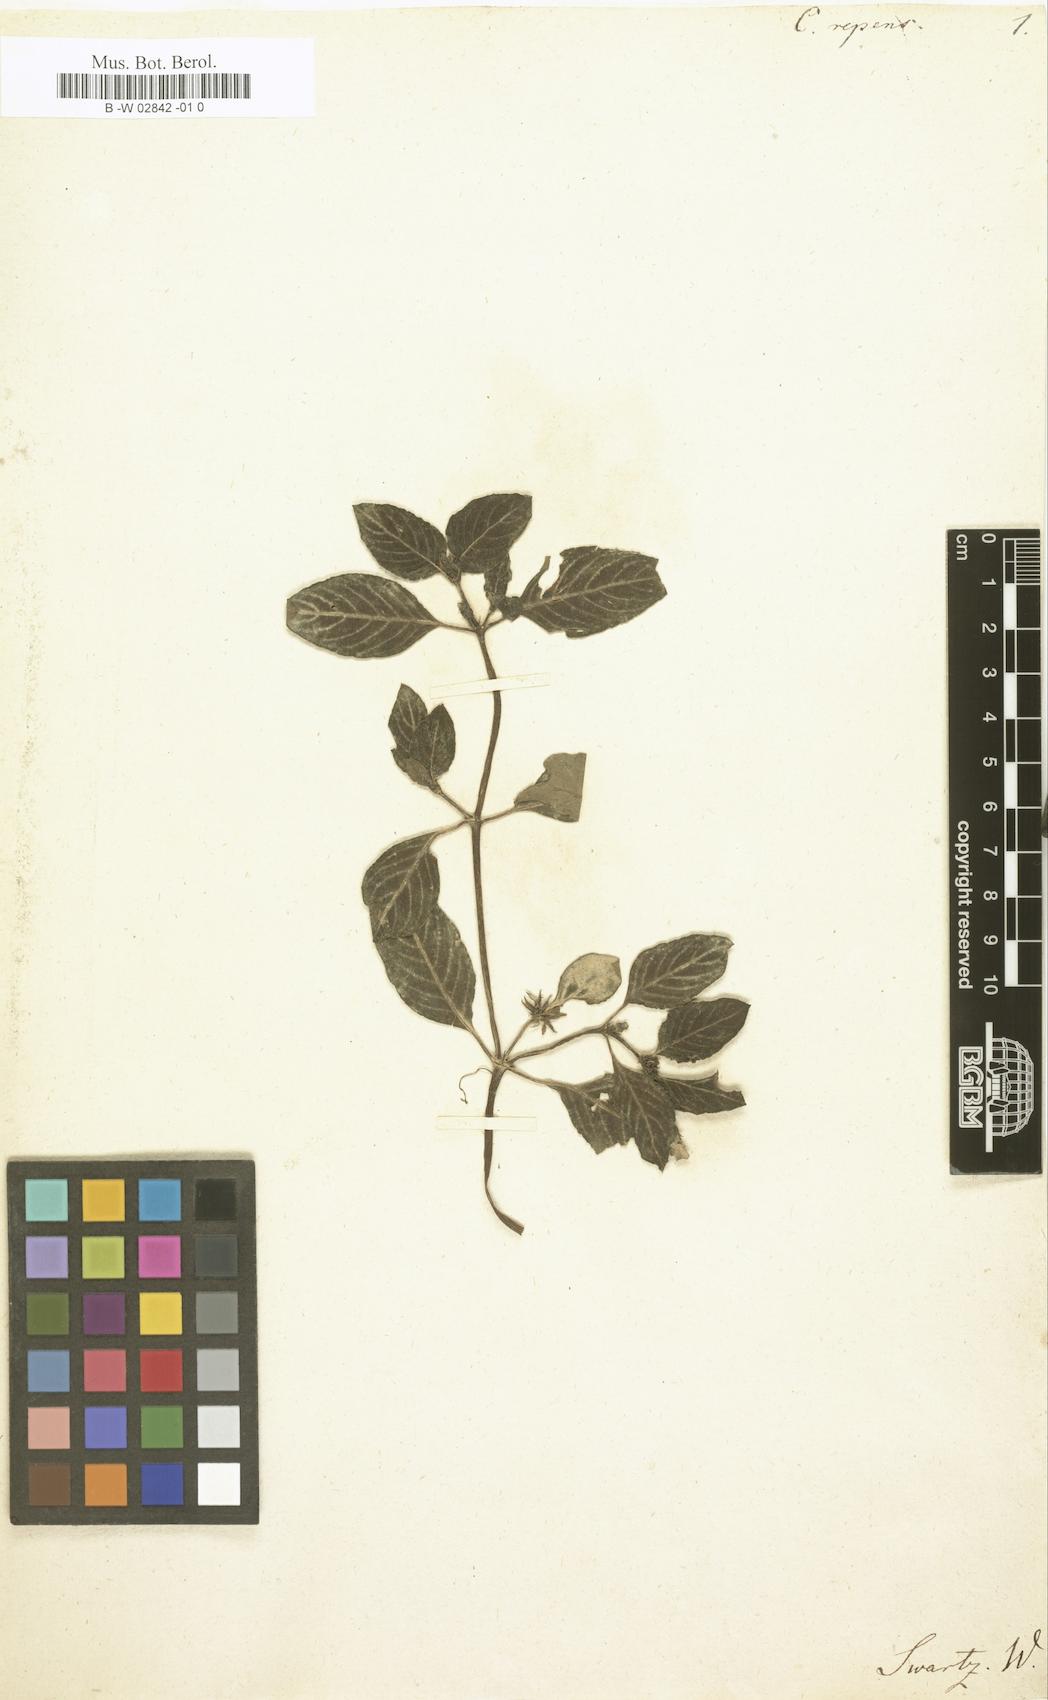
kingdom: Plantae
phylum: Tracheophyta
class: Magnoliopsida
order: Gentianales
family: Rubiaceae
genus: Coccocypselum
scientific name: Coccocypselum repens
